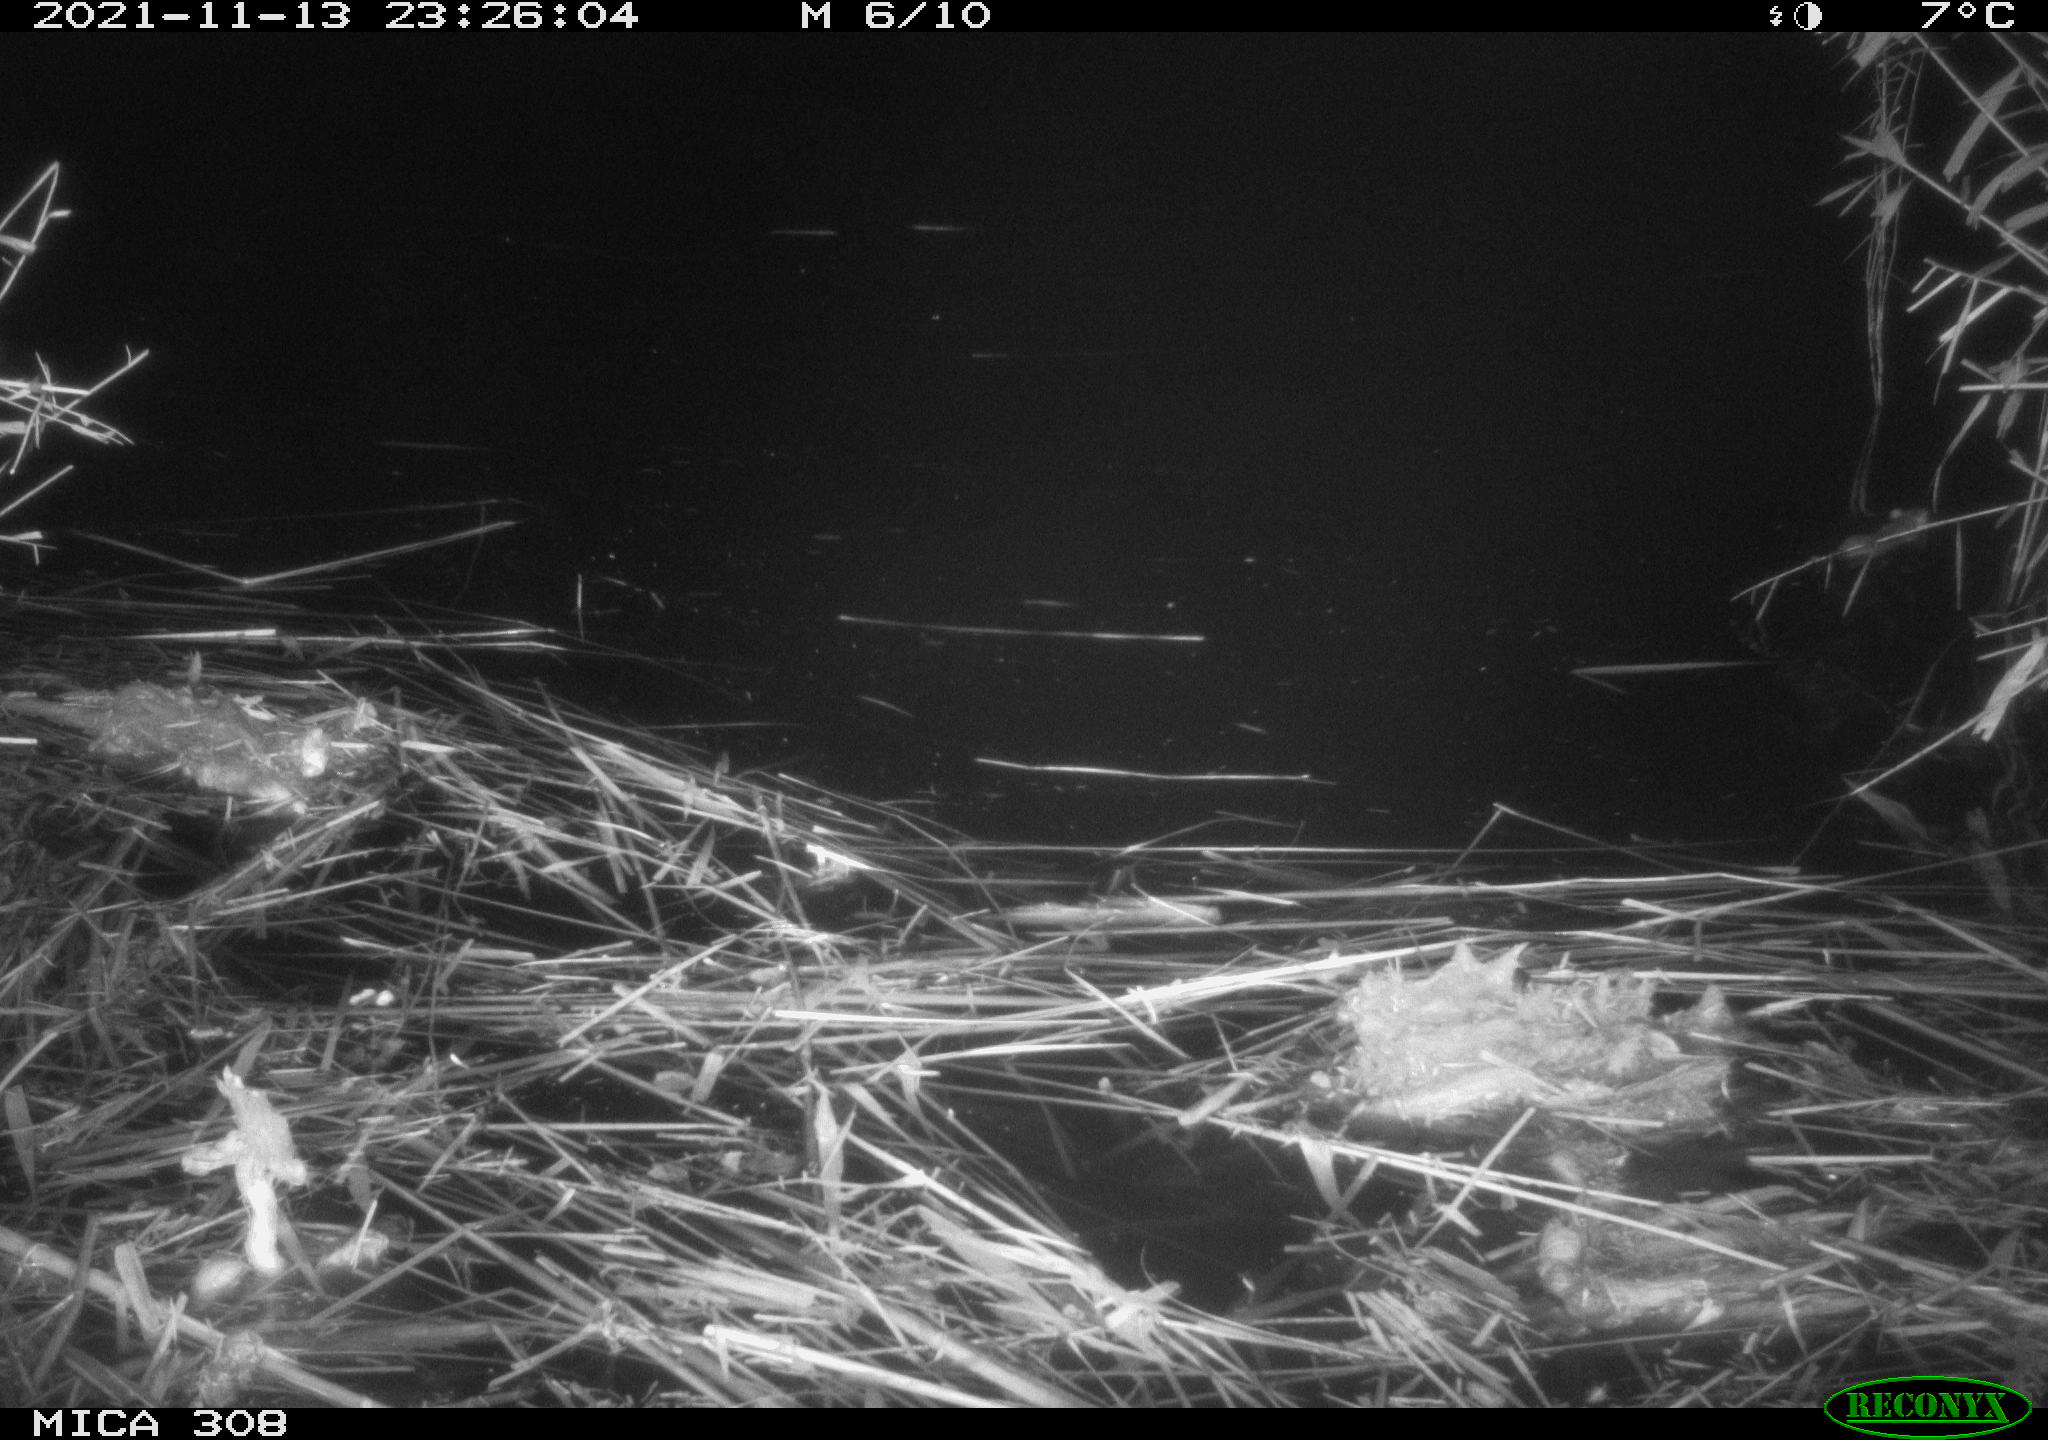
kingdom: Animalia
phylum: Chordata
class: Mammalia
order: Rodentia
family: Muridae
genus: Rattus
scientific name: Rattus norvegicus
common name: Brown rat
